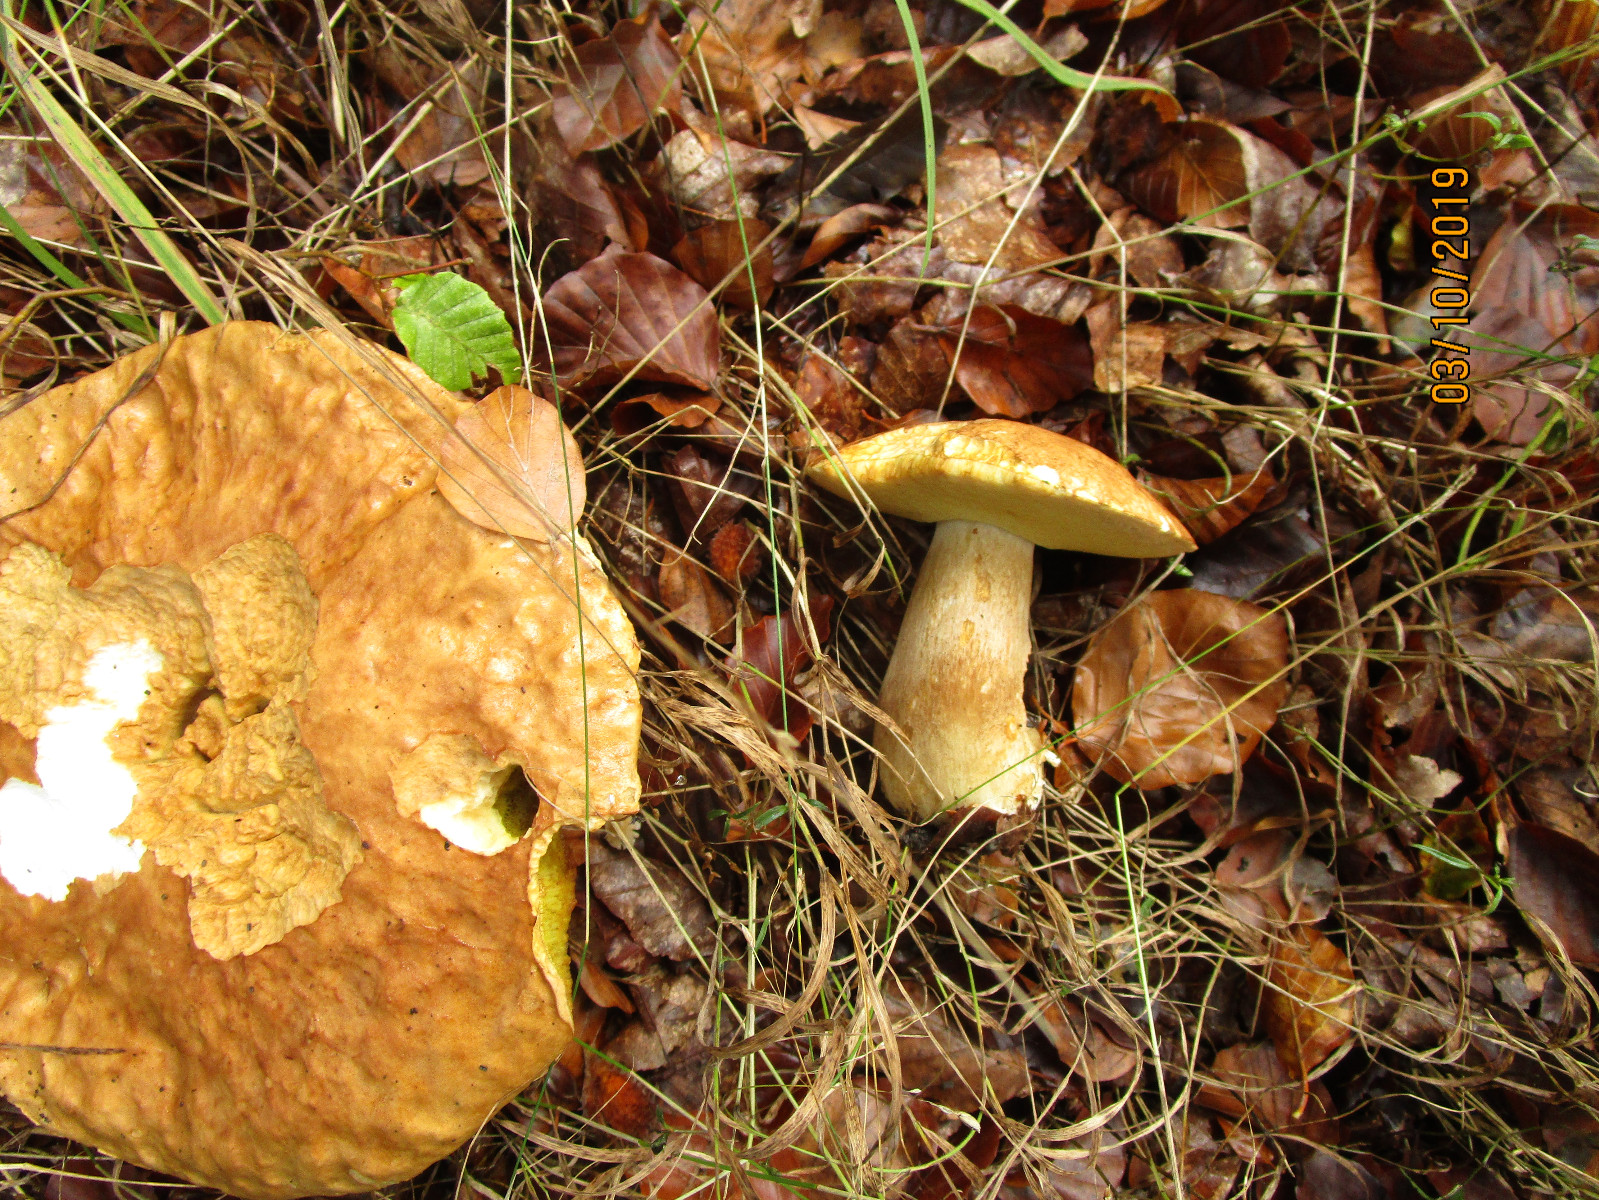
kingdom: Fungi
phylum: Basidiomycota
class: Agaricomycetes
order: Boletales
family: Boletaceae
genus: Boletus
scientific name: Boletus reticulatus
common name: sommer-rørhat
